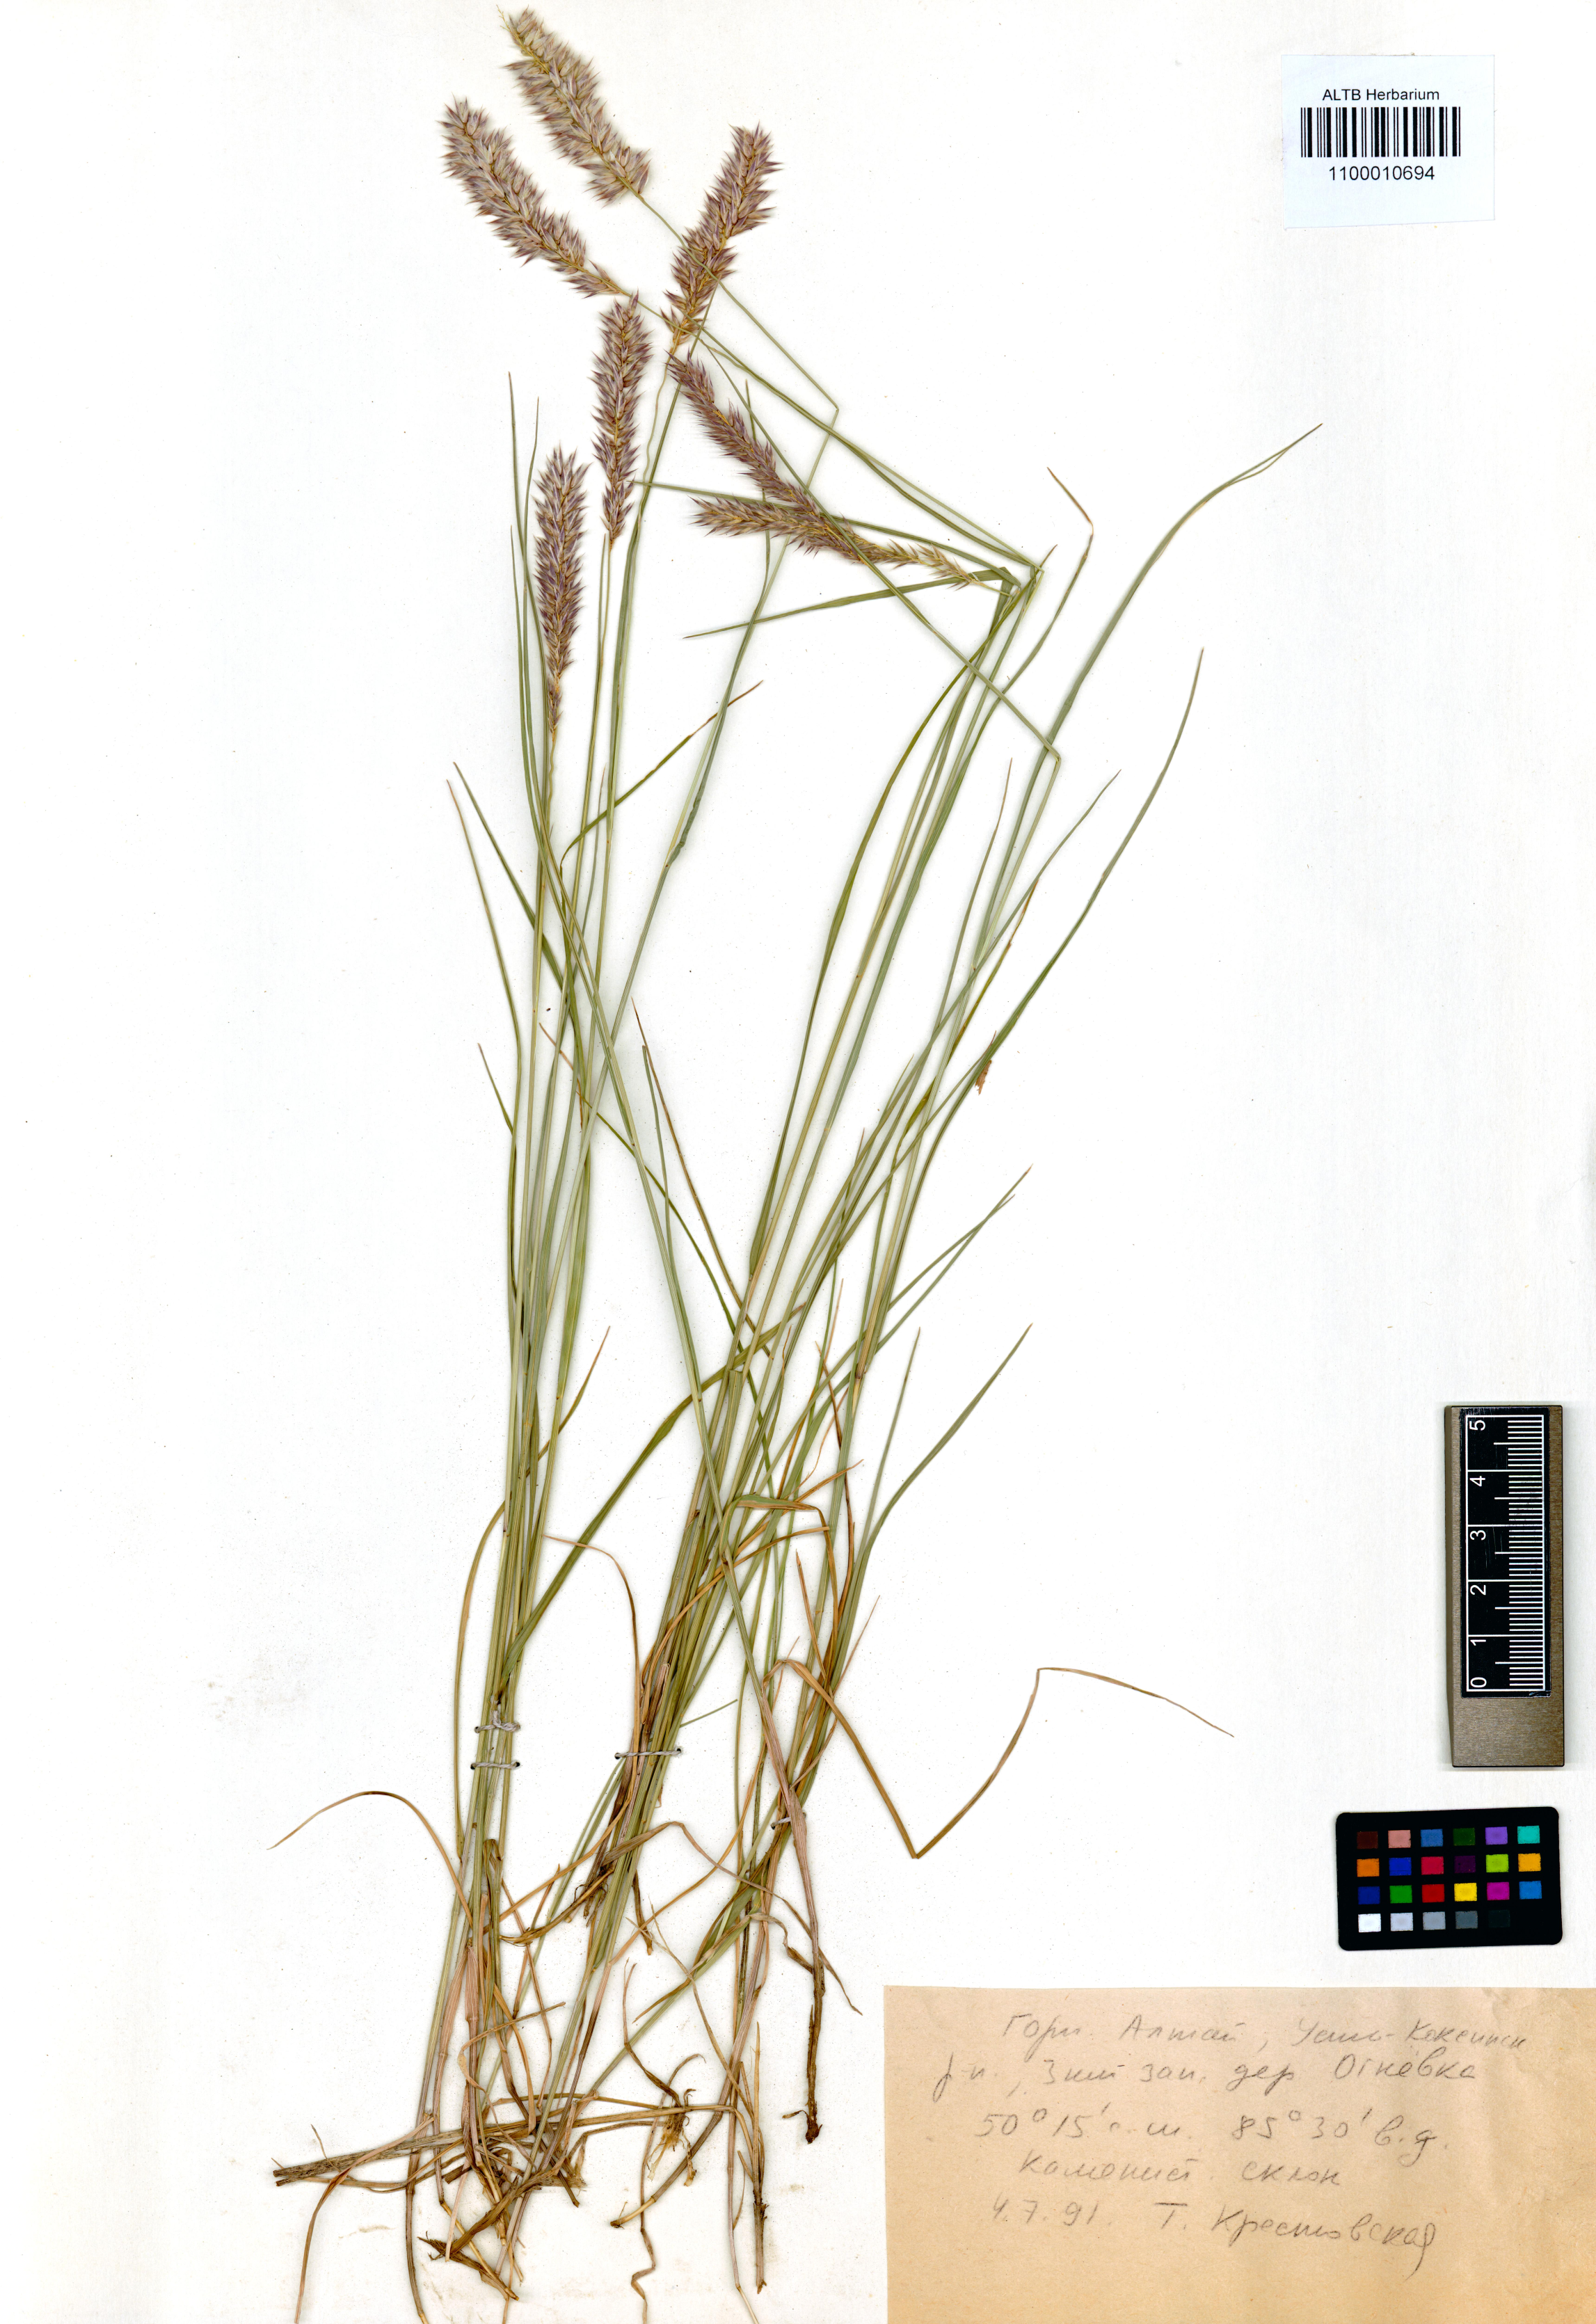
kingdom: Plantae
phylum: Tracheophyta
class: Liliopsida
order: Poales
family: Poaceae
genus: Melica
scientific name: Melica transsilvanica
